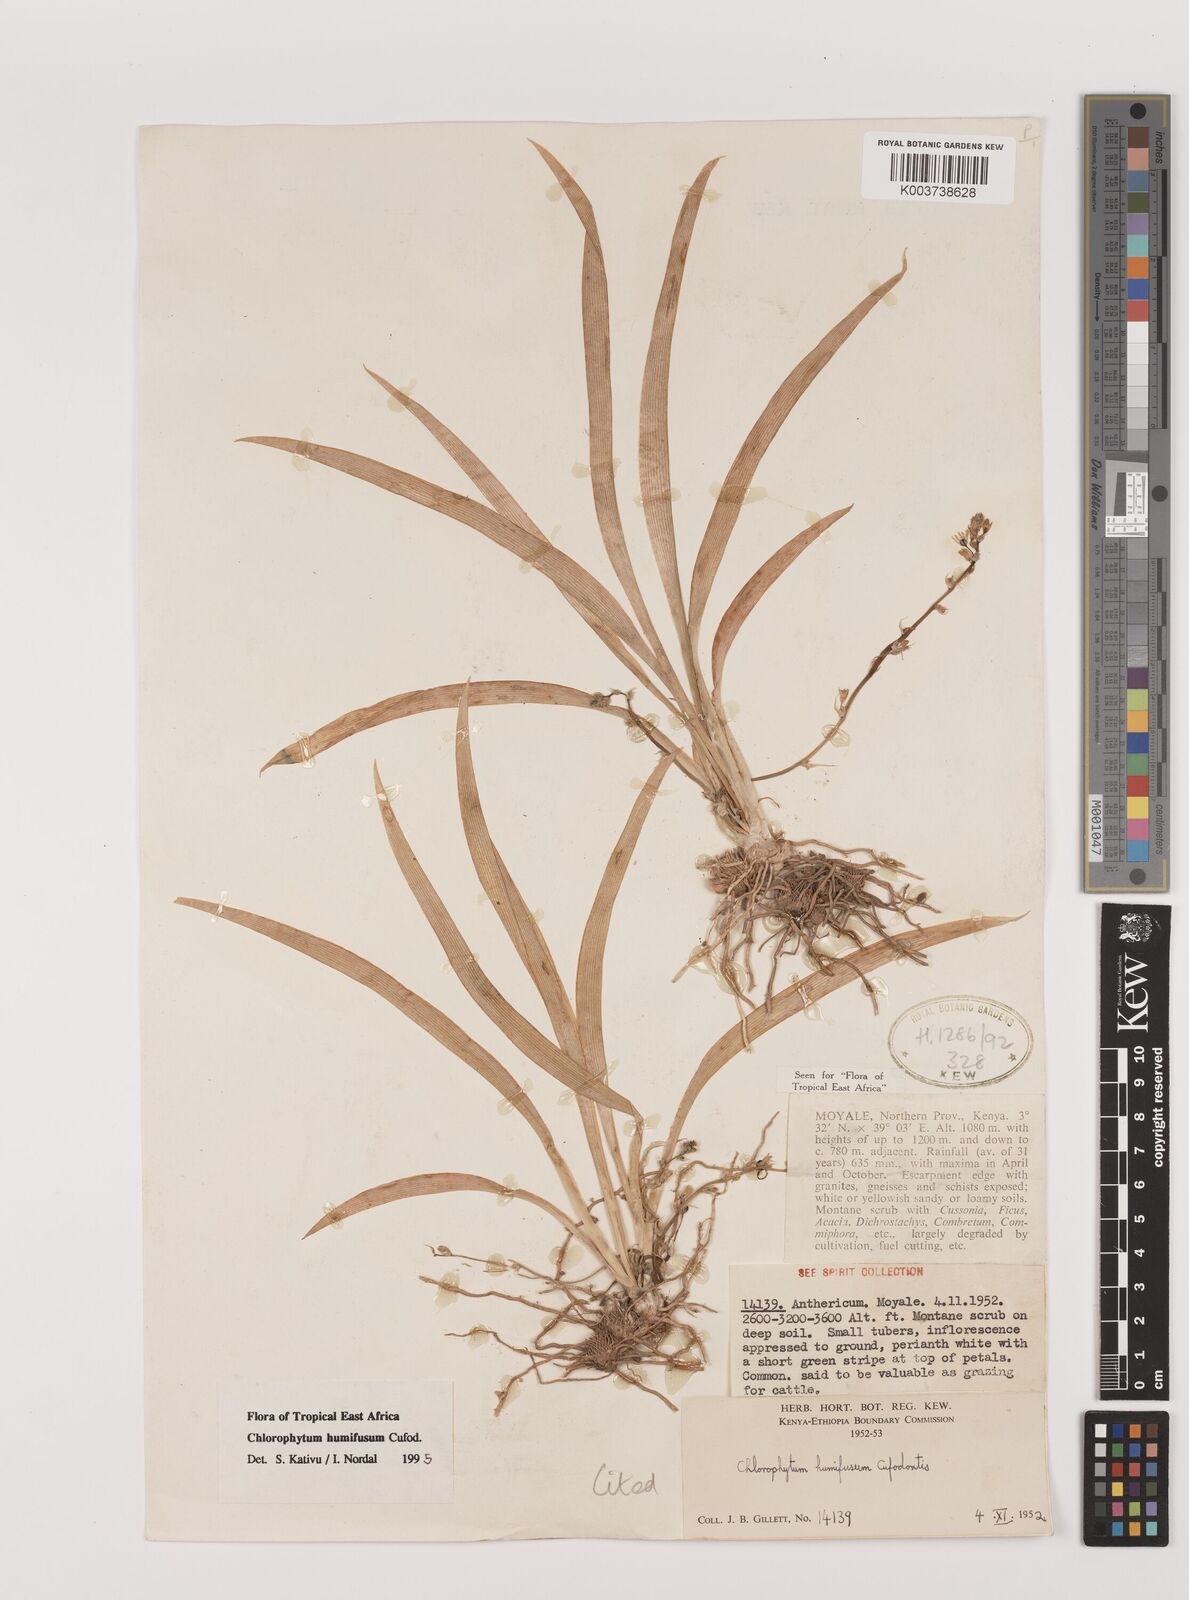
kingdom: Plantae
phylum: Tracheophyta
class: Liliopsida
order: Asparagales
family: Asparagaceae
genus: Chlorophytum
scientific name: Chlorophytum humifusum
